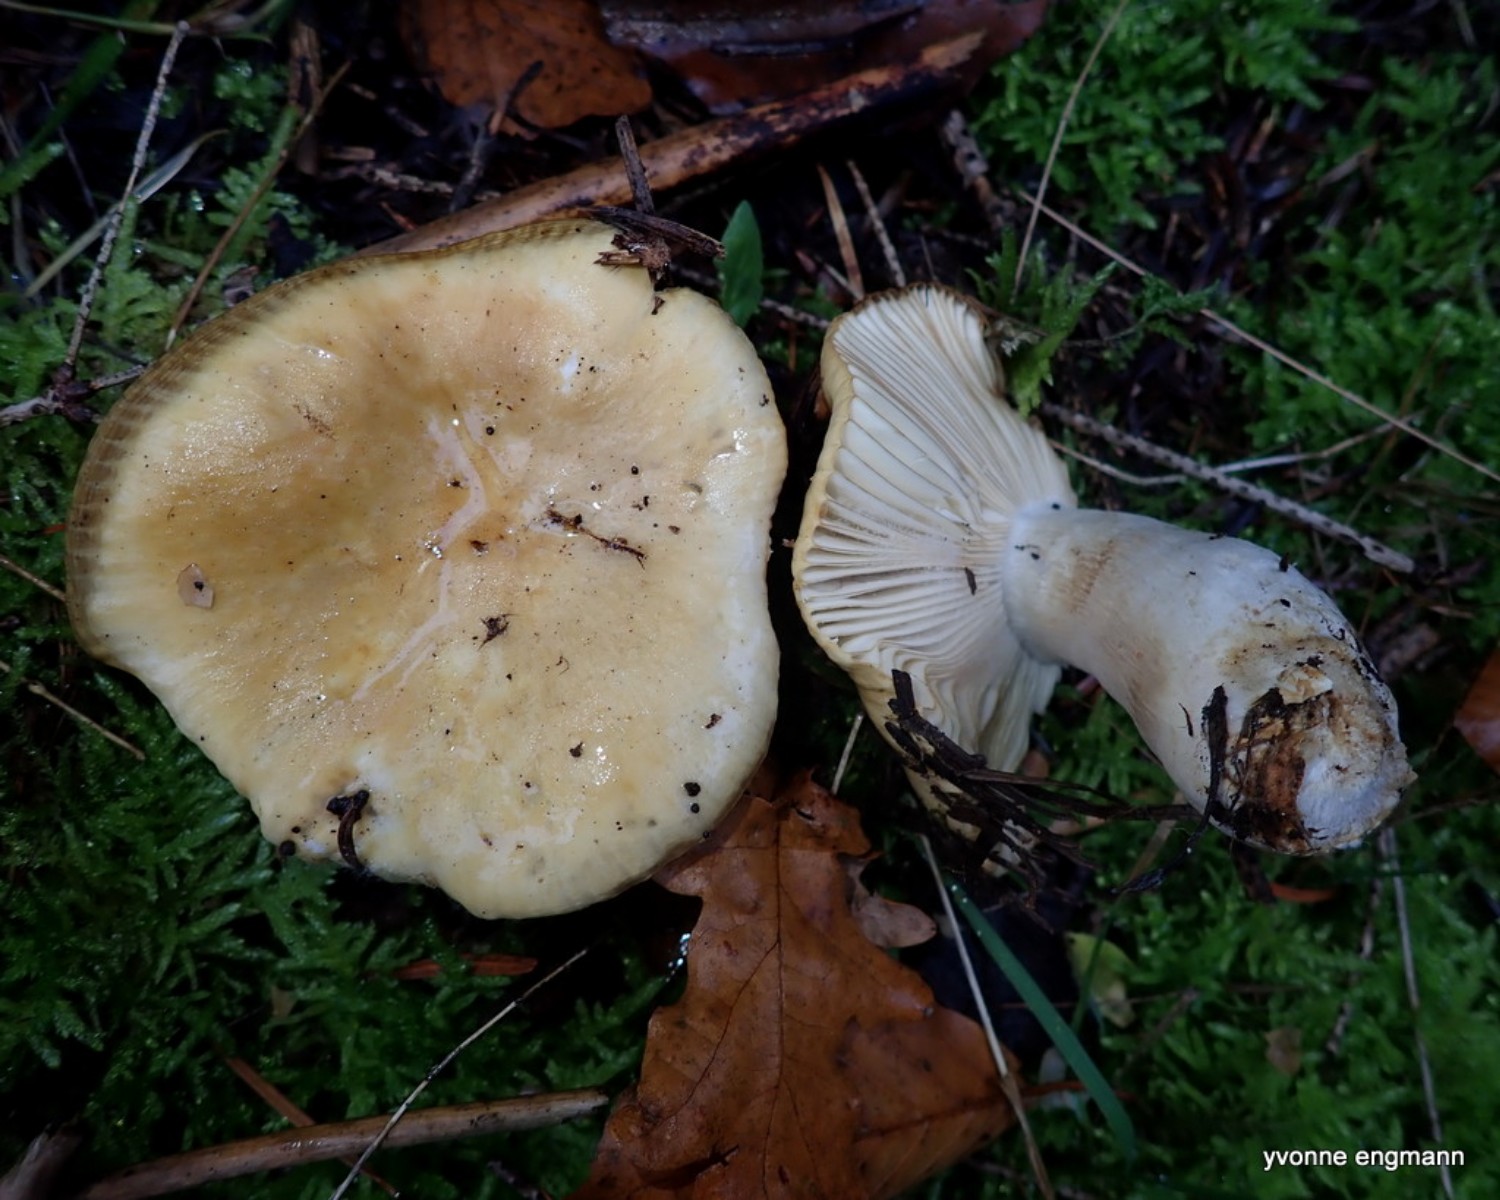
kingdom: Fungi
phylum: Basidiomycota
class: Agaricomycetes
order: Russulales
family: Russulaceae
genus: Russula
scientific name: Russula ochroleuca
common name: okkergul skørhat
